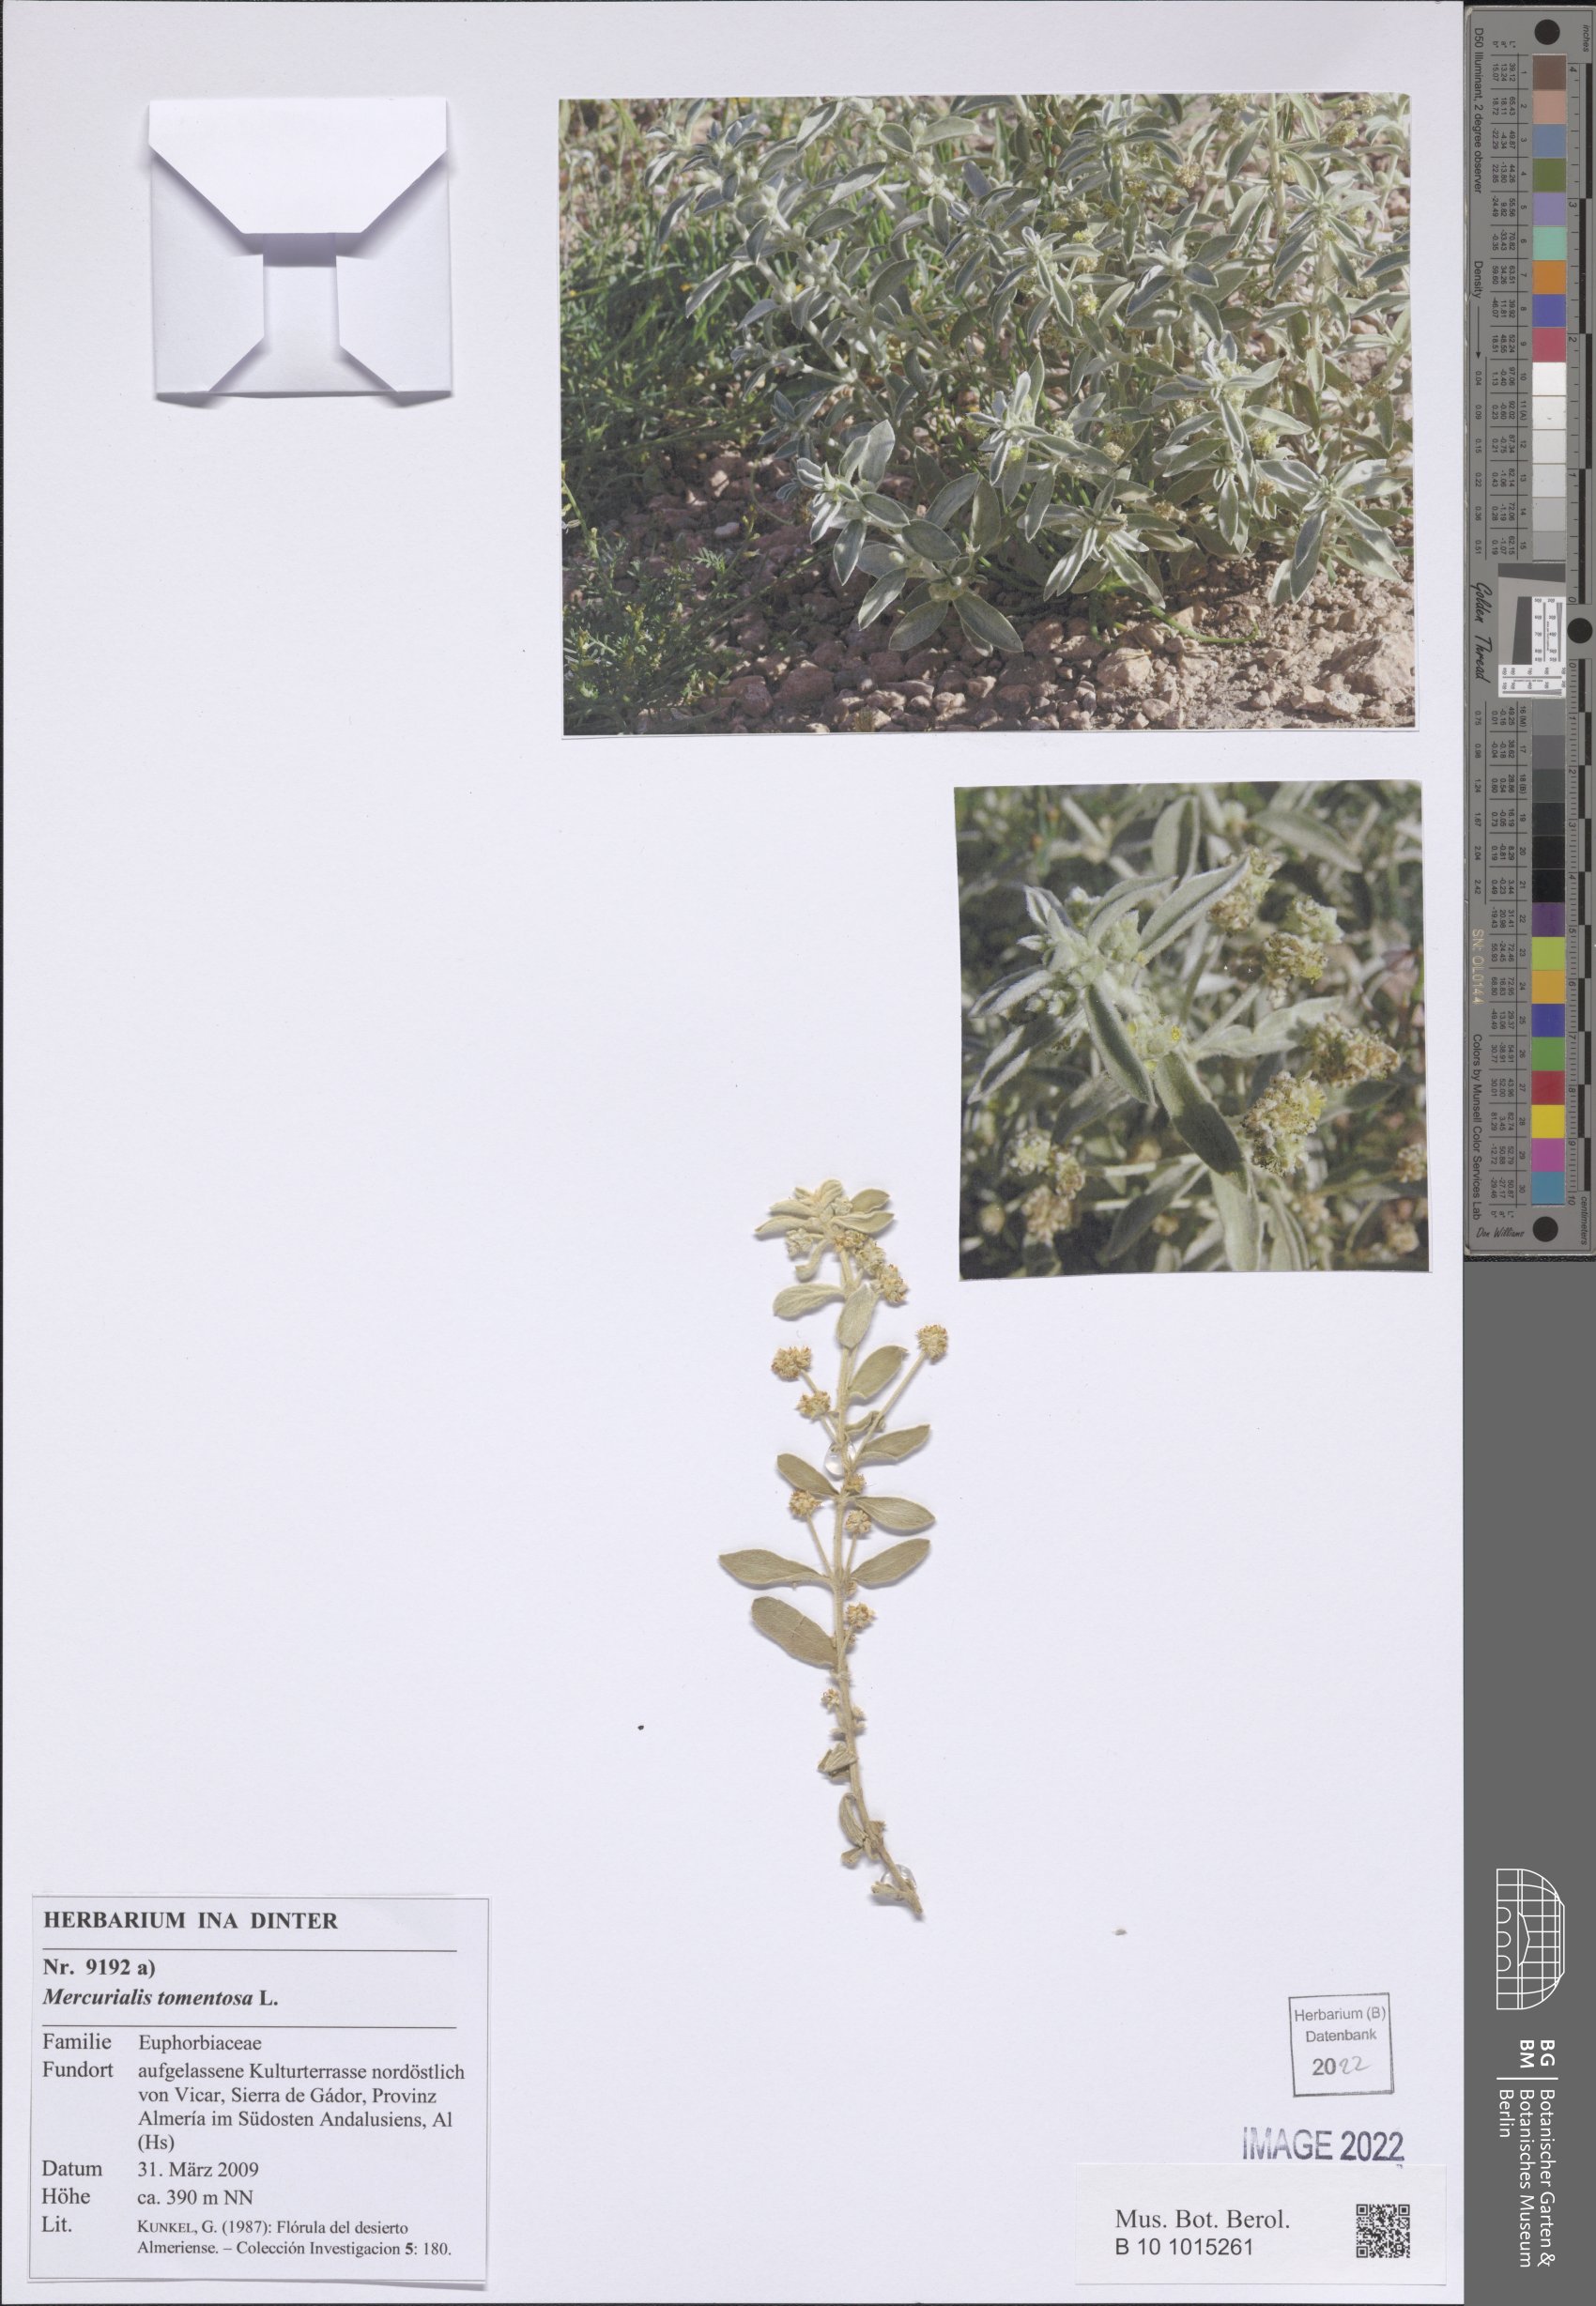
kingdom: Plantae
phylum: Tracheophyta
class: Magnoliopsida
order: Malpighiales
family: Euphorbiaceae
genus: Mercurialis
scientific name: Mercurialis tomentosa
